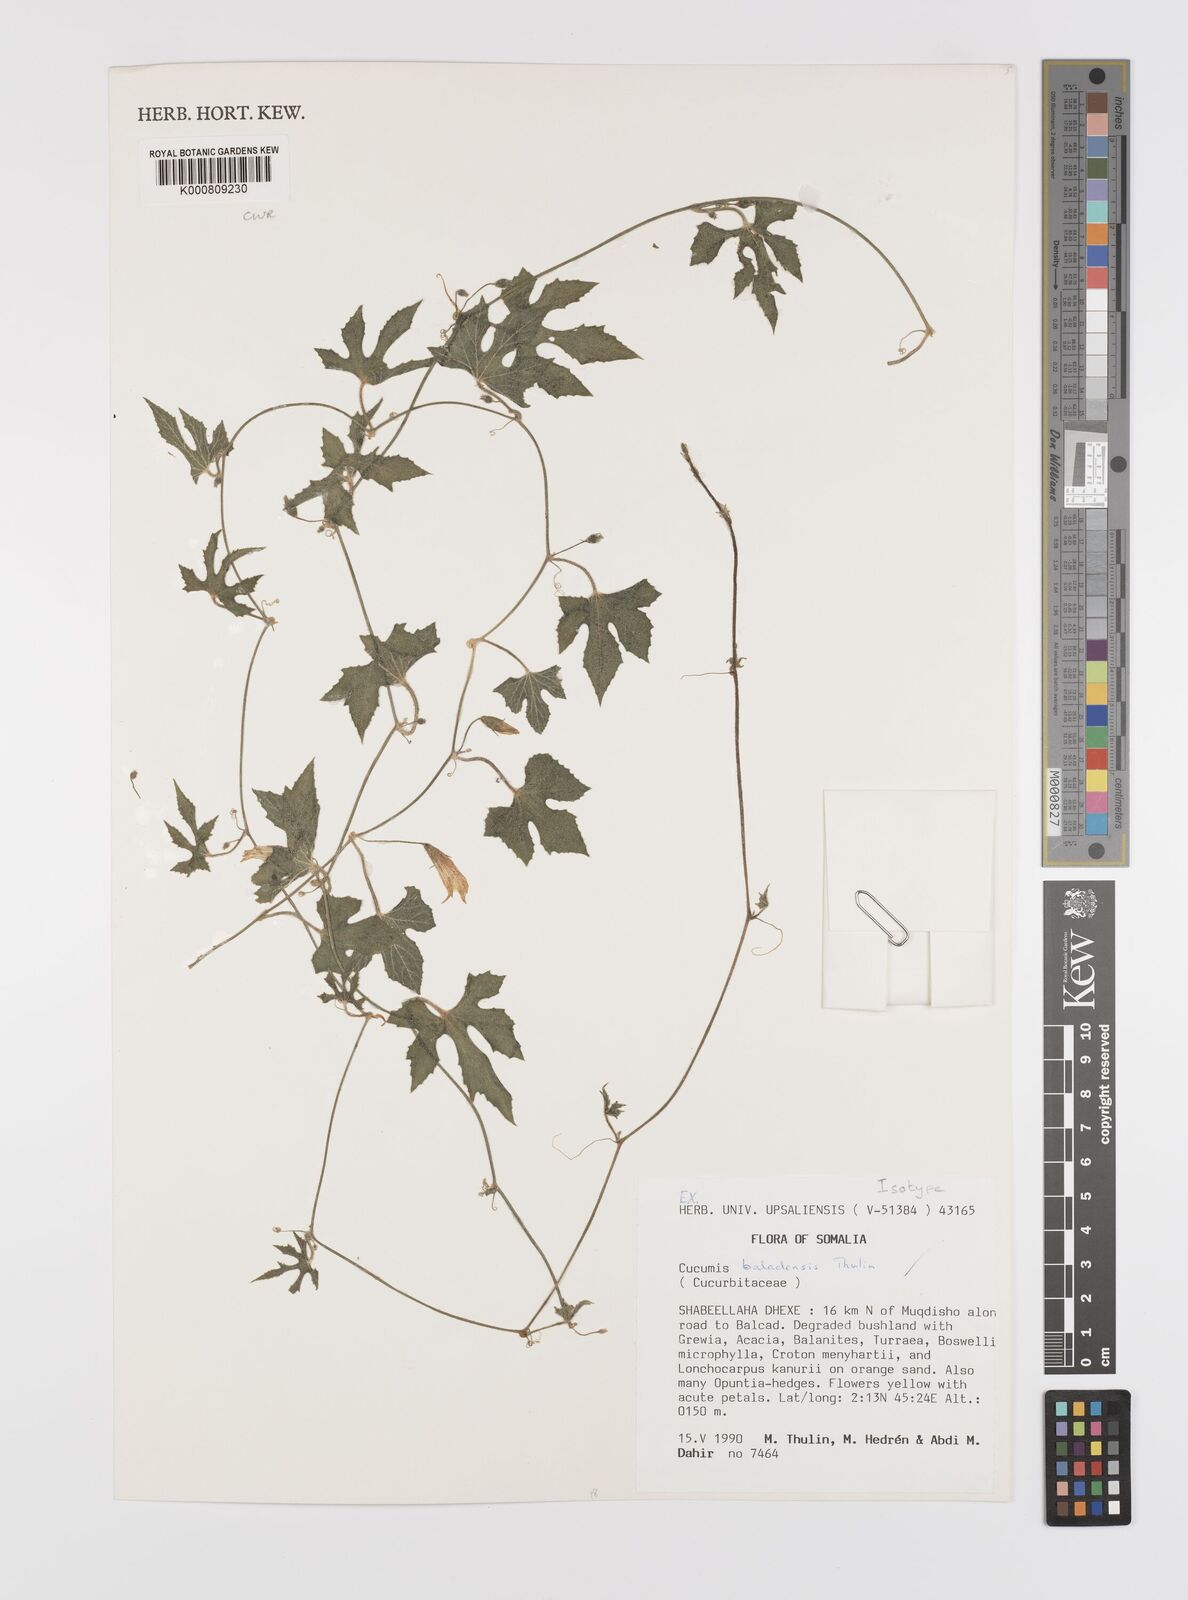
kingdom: Plantae
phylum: Tracheophyta
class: Magnoliopsida
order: Cucurbitales
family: Cucurbitaceae
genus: Cucumis
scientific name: Cucumis baladensis
